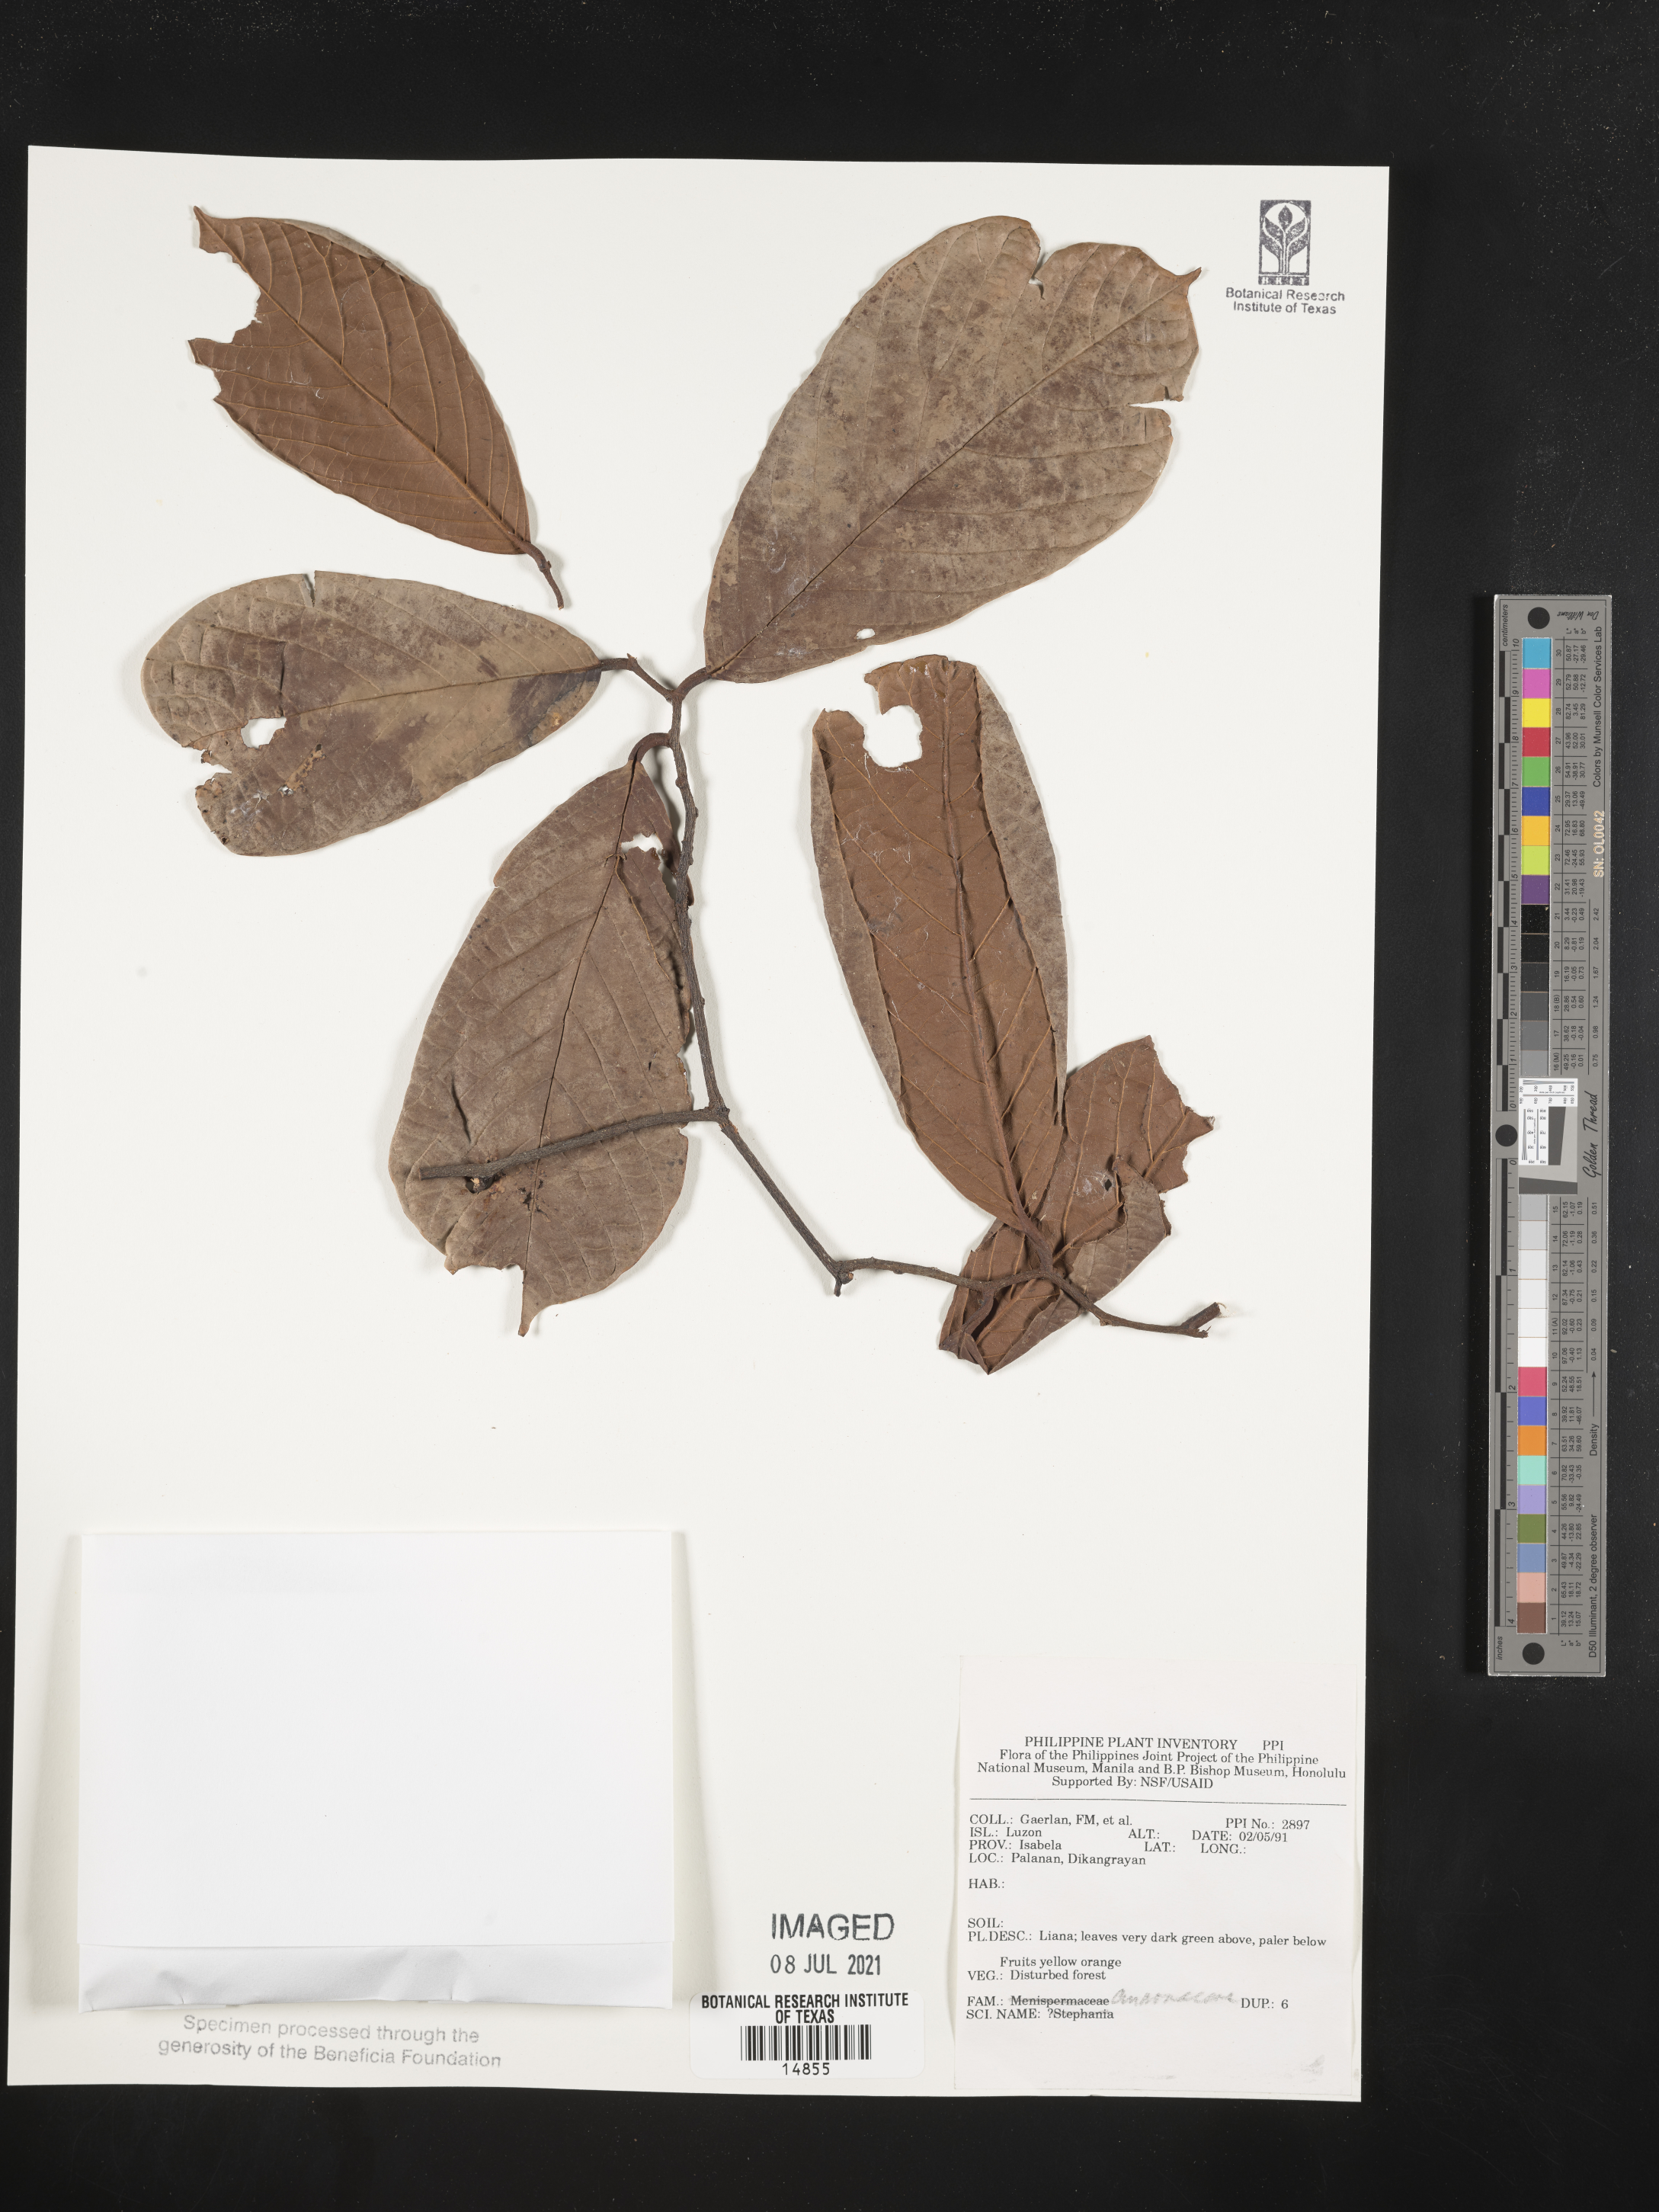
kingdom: Plantae
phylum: Tracheophyta
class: Magnoliopsida
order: Magnoliales
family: Annonaceae
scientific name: Annonaceae
